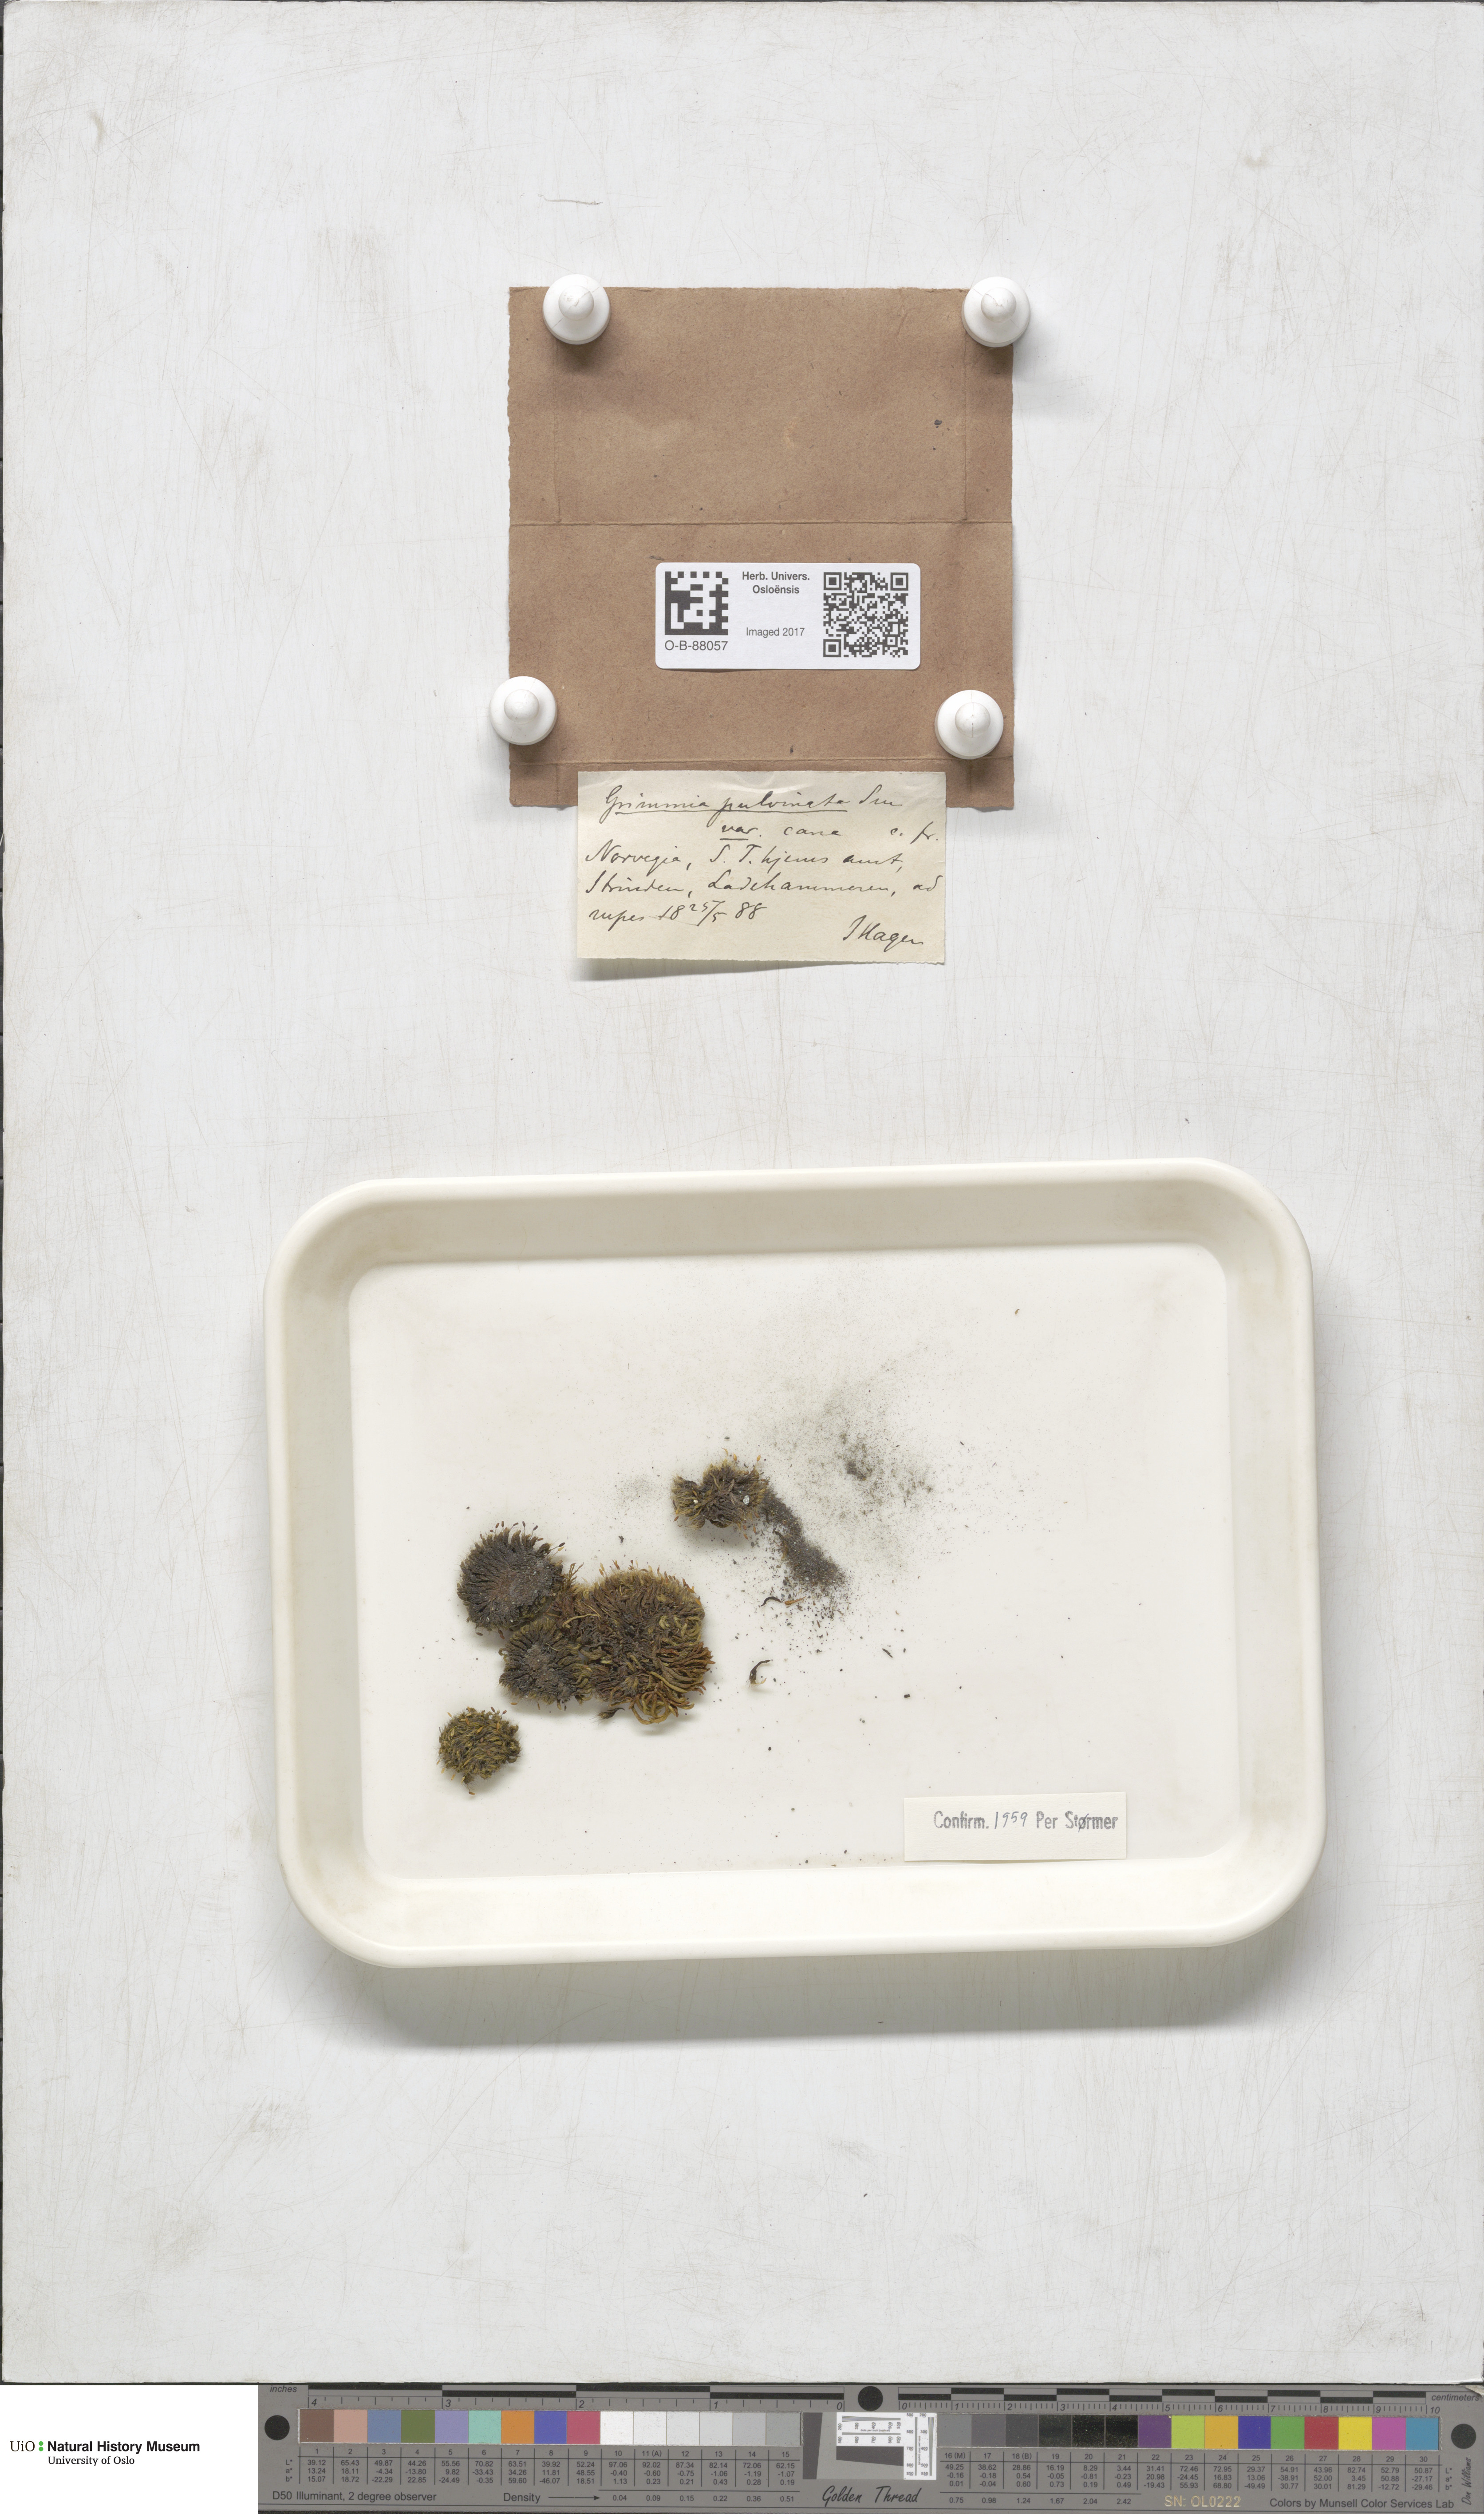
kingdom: Plantae
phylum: Bryophyta
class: Bryopsida
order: Grimmiales
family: Grimmiaceae
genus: Grimmia
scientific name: Grimmia pulvinata
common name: Grey-cushioned grimmia
